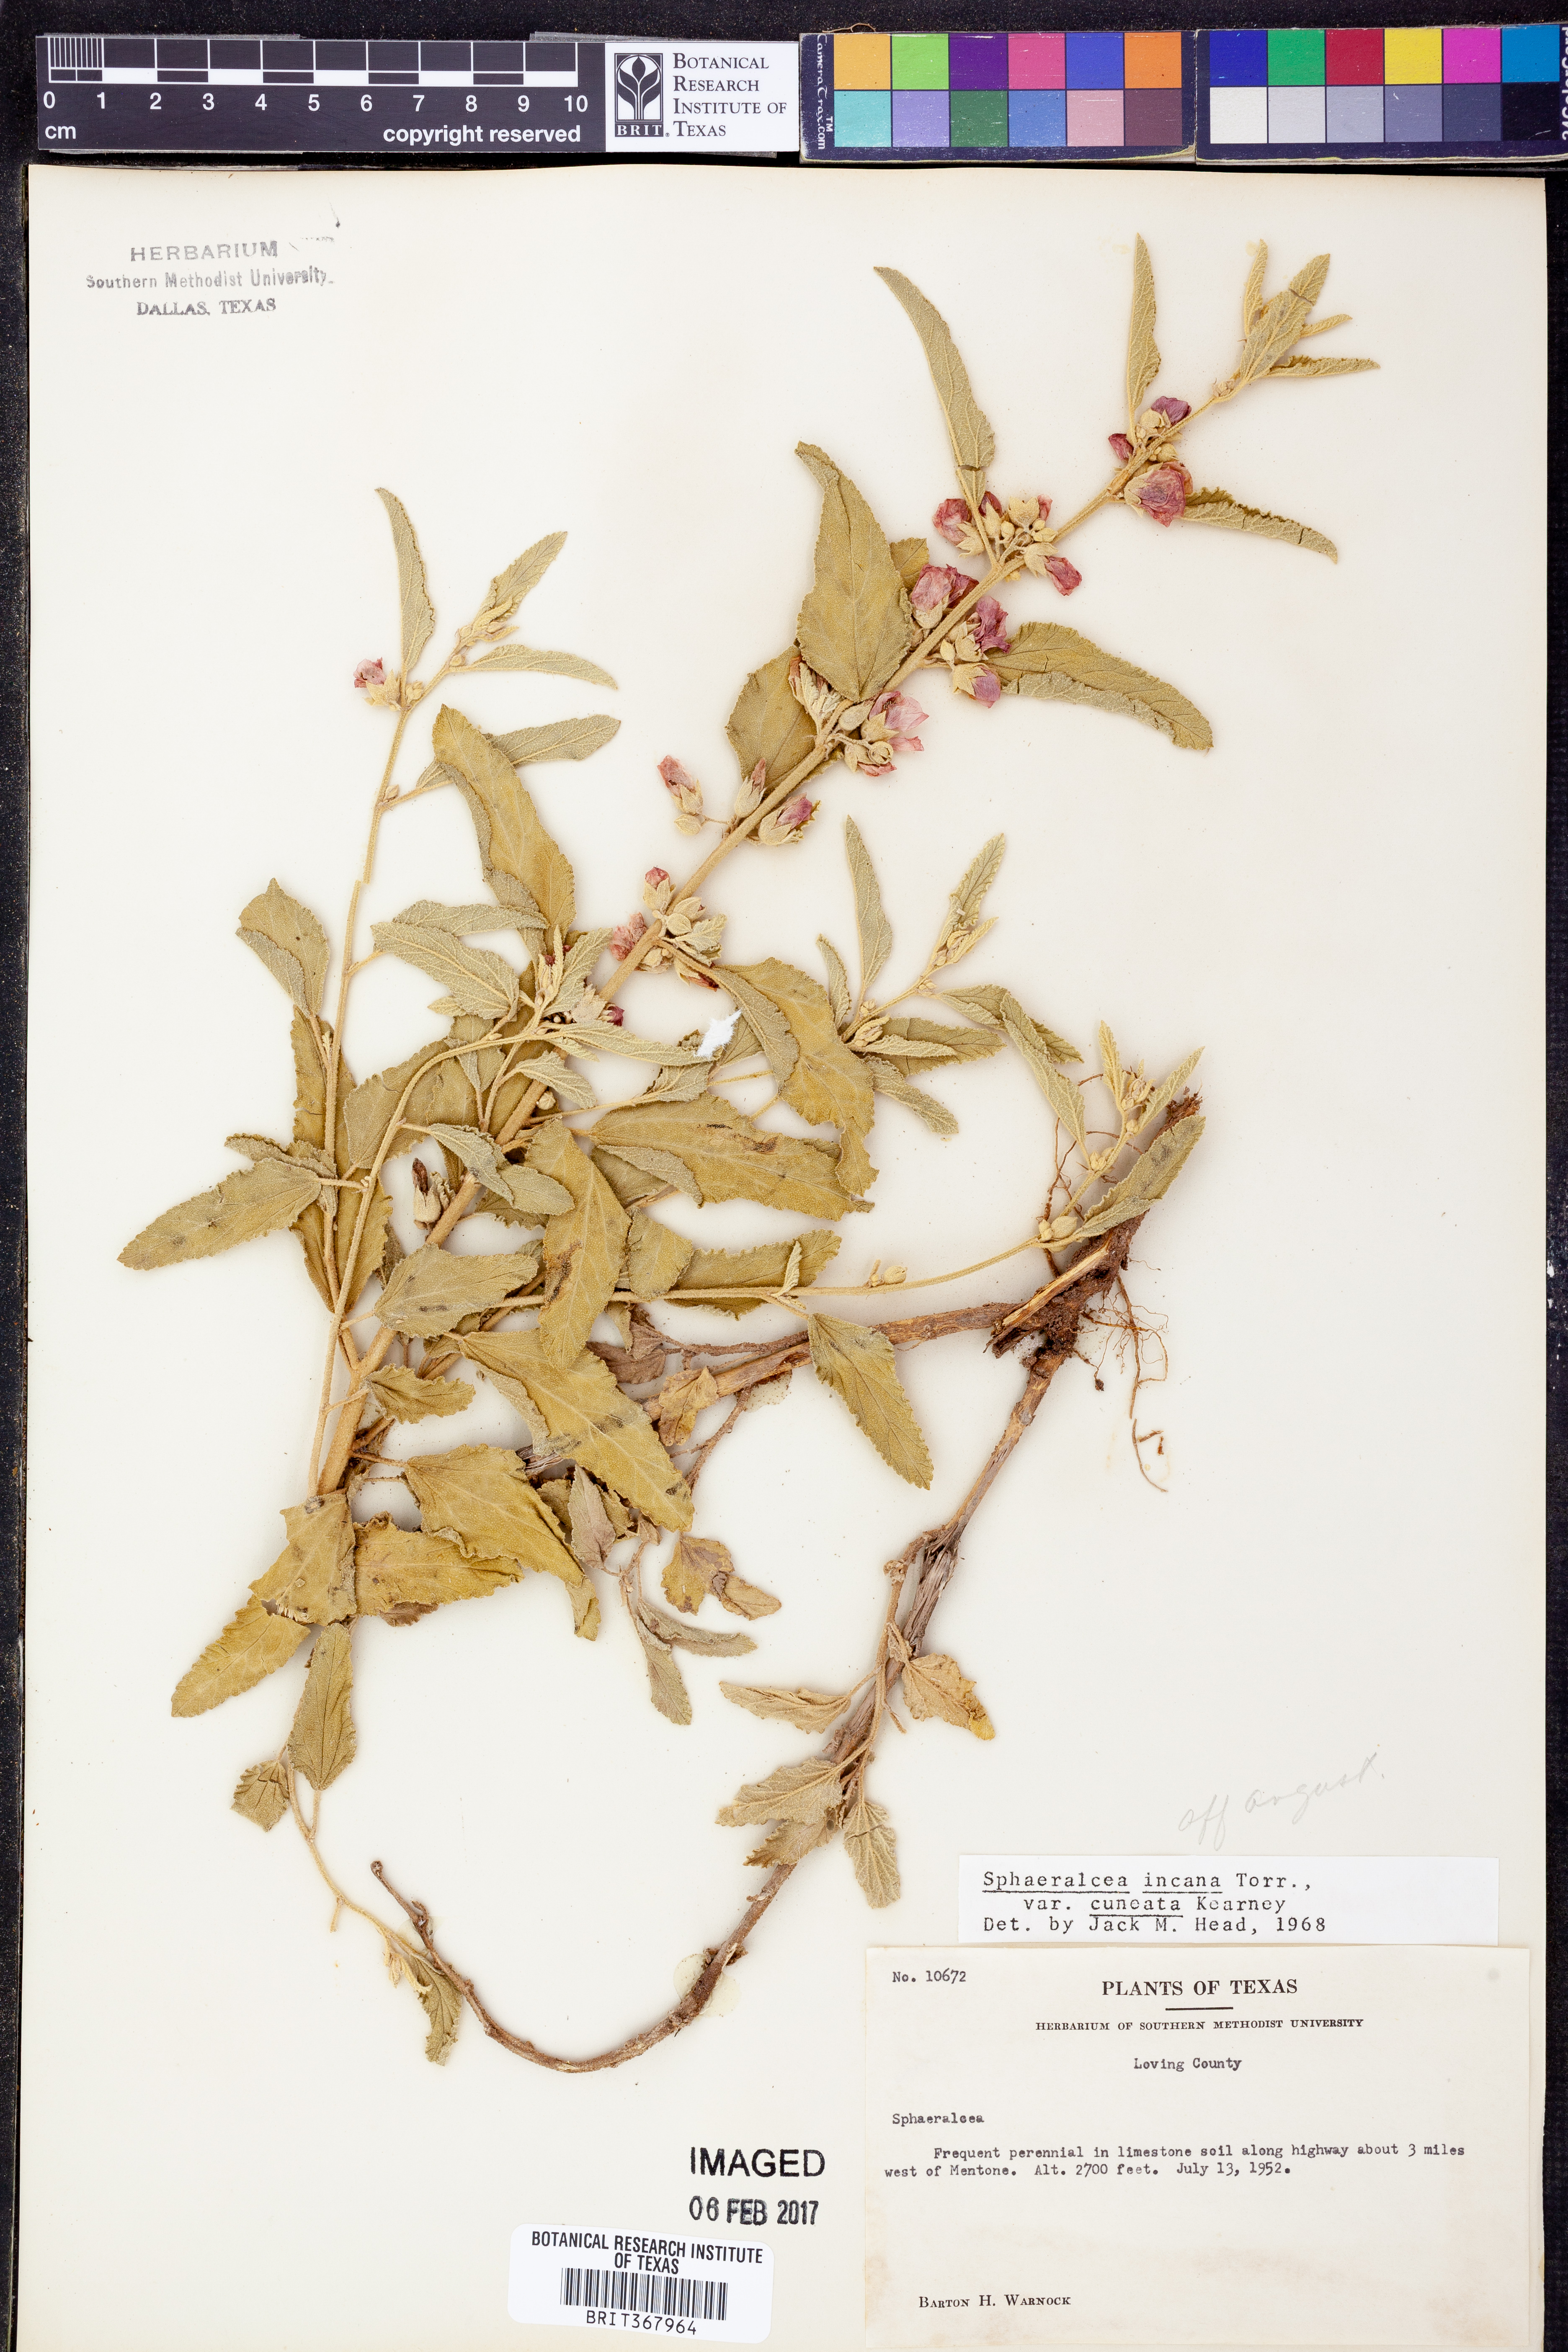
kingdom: Plantae
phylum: Tracheophyta
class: Magnoliopsida
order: Malvales
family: Malvaceae
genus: Sphaeralcea
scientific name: Sphaeralcea angustifolia
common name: Copper globe-mallow
